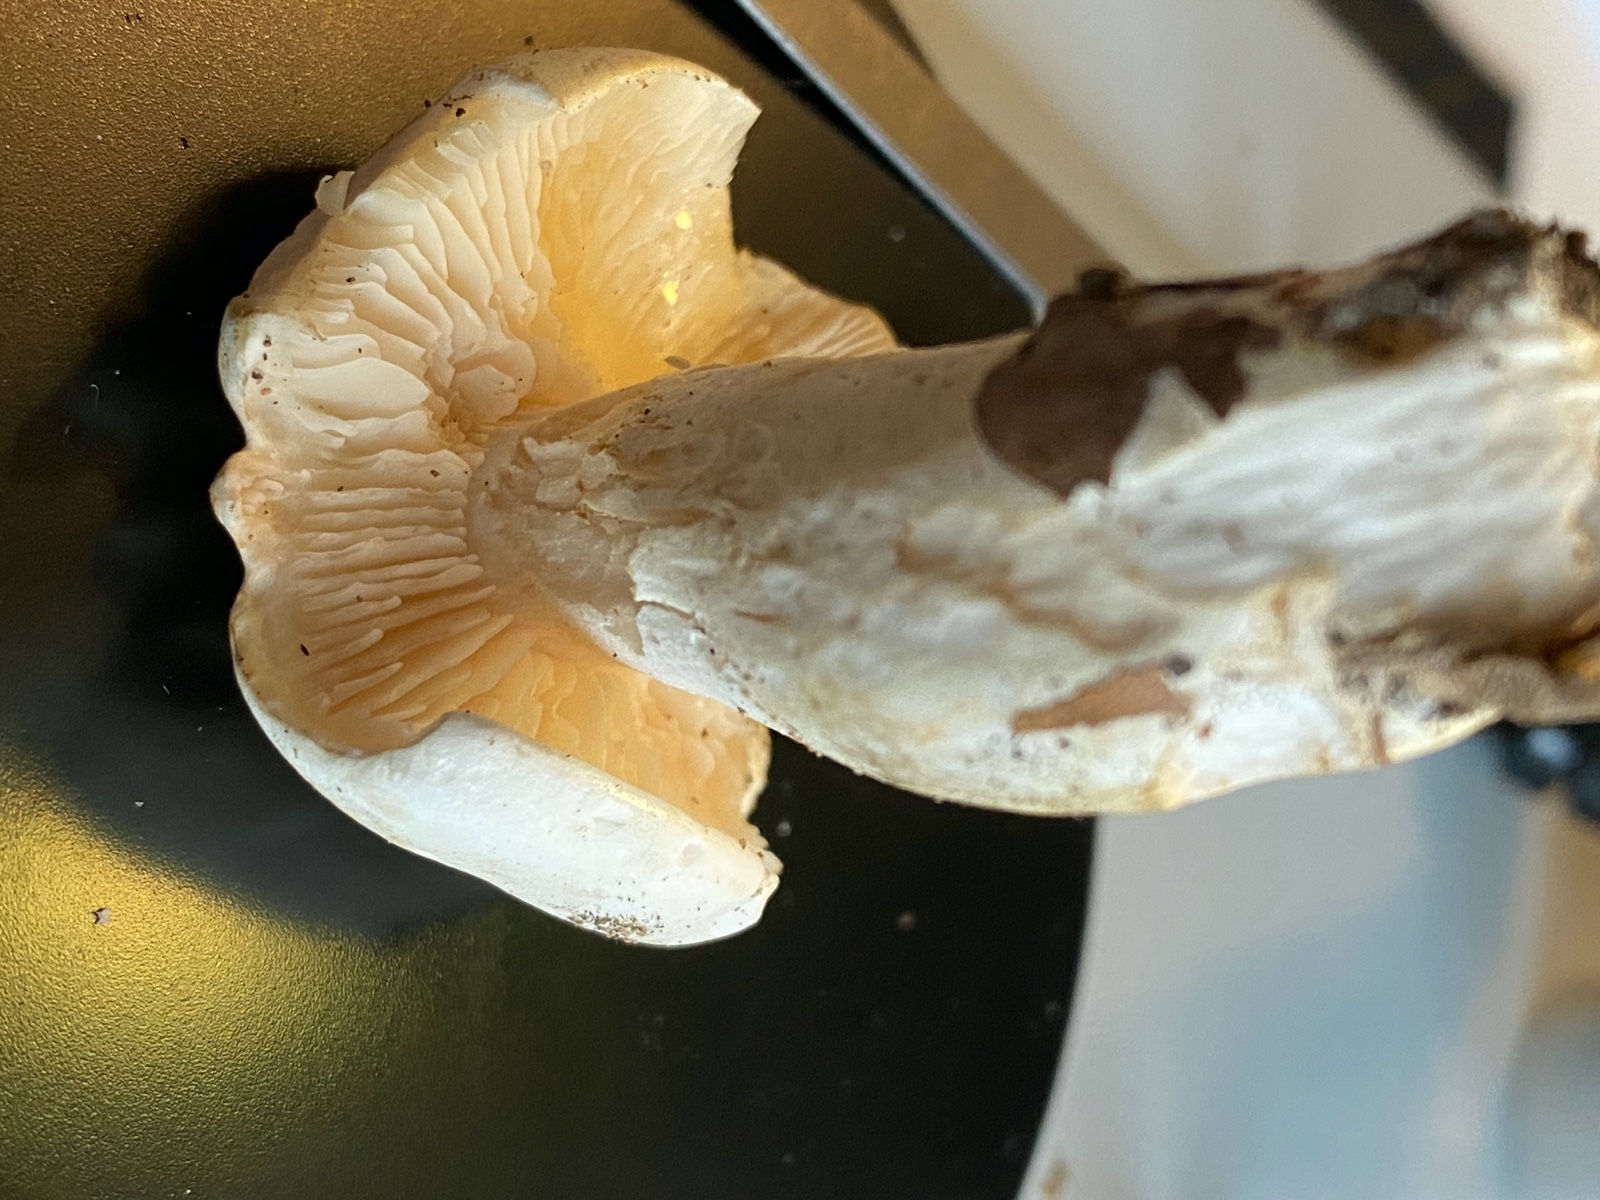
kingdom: Fungi
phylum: Basidiomycota
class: Agaricomycetes
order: Agaricales
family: Tricholomataceae
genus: Tricholoma
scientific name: Tricholoma
